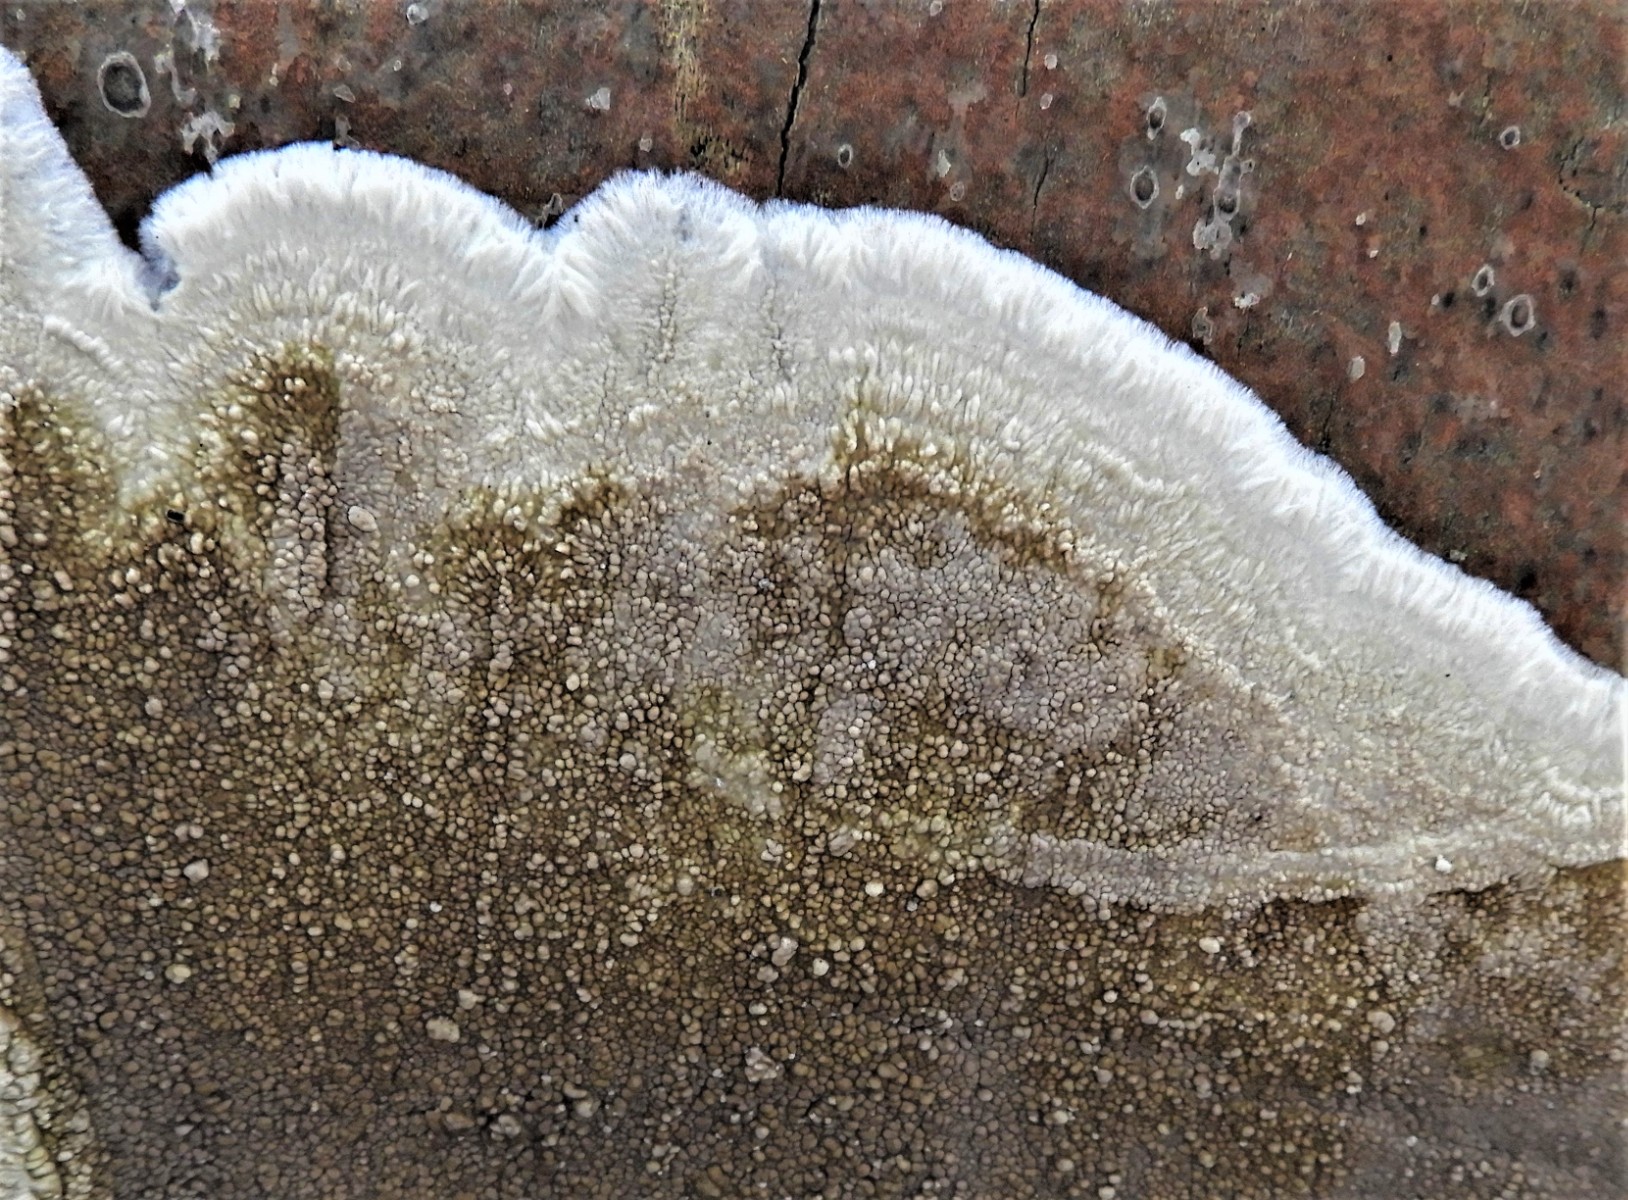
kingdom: Fungi
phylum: Basidiomycota
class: Agaricomycetes
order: Boletales
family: Coniophoraceae
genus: Coniophora
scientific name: Coniophora puteana
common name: gul tømmersvamp
